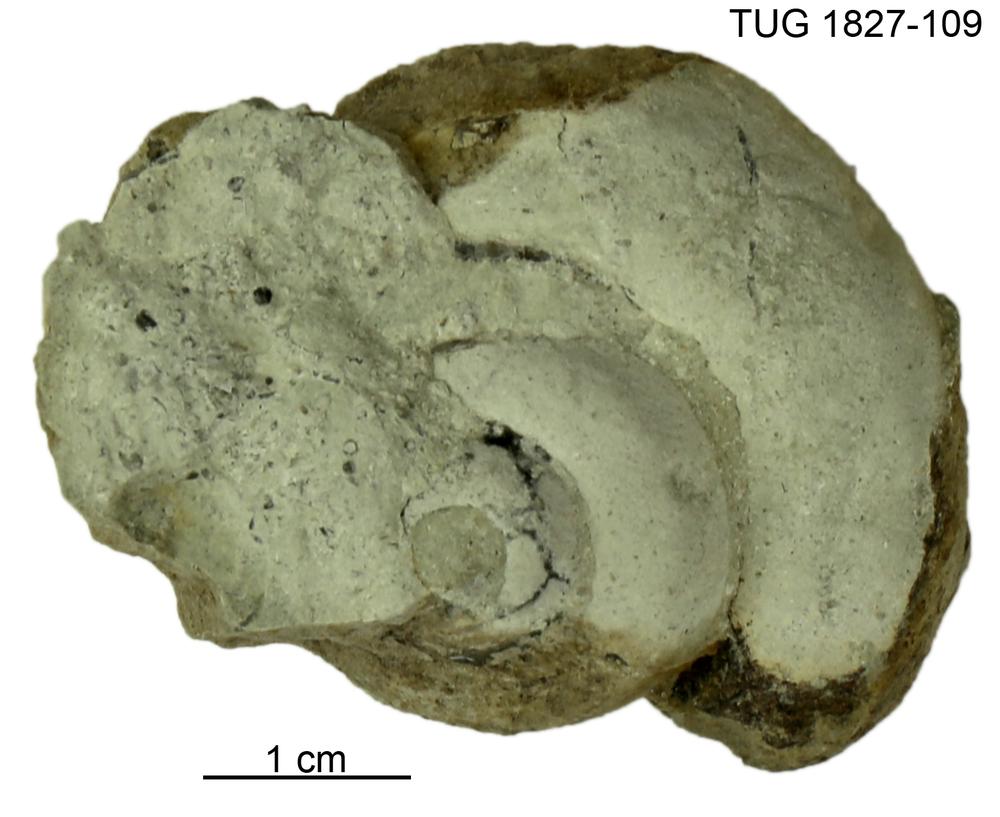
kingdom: Animalia
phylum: Mollusca
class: Gastropoda
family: Helicotomidae
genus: Boucotspira
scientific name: Boucotspira Euomphalus carinifer
